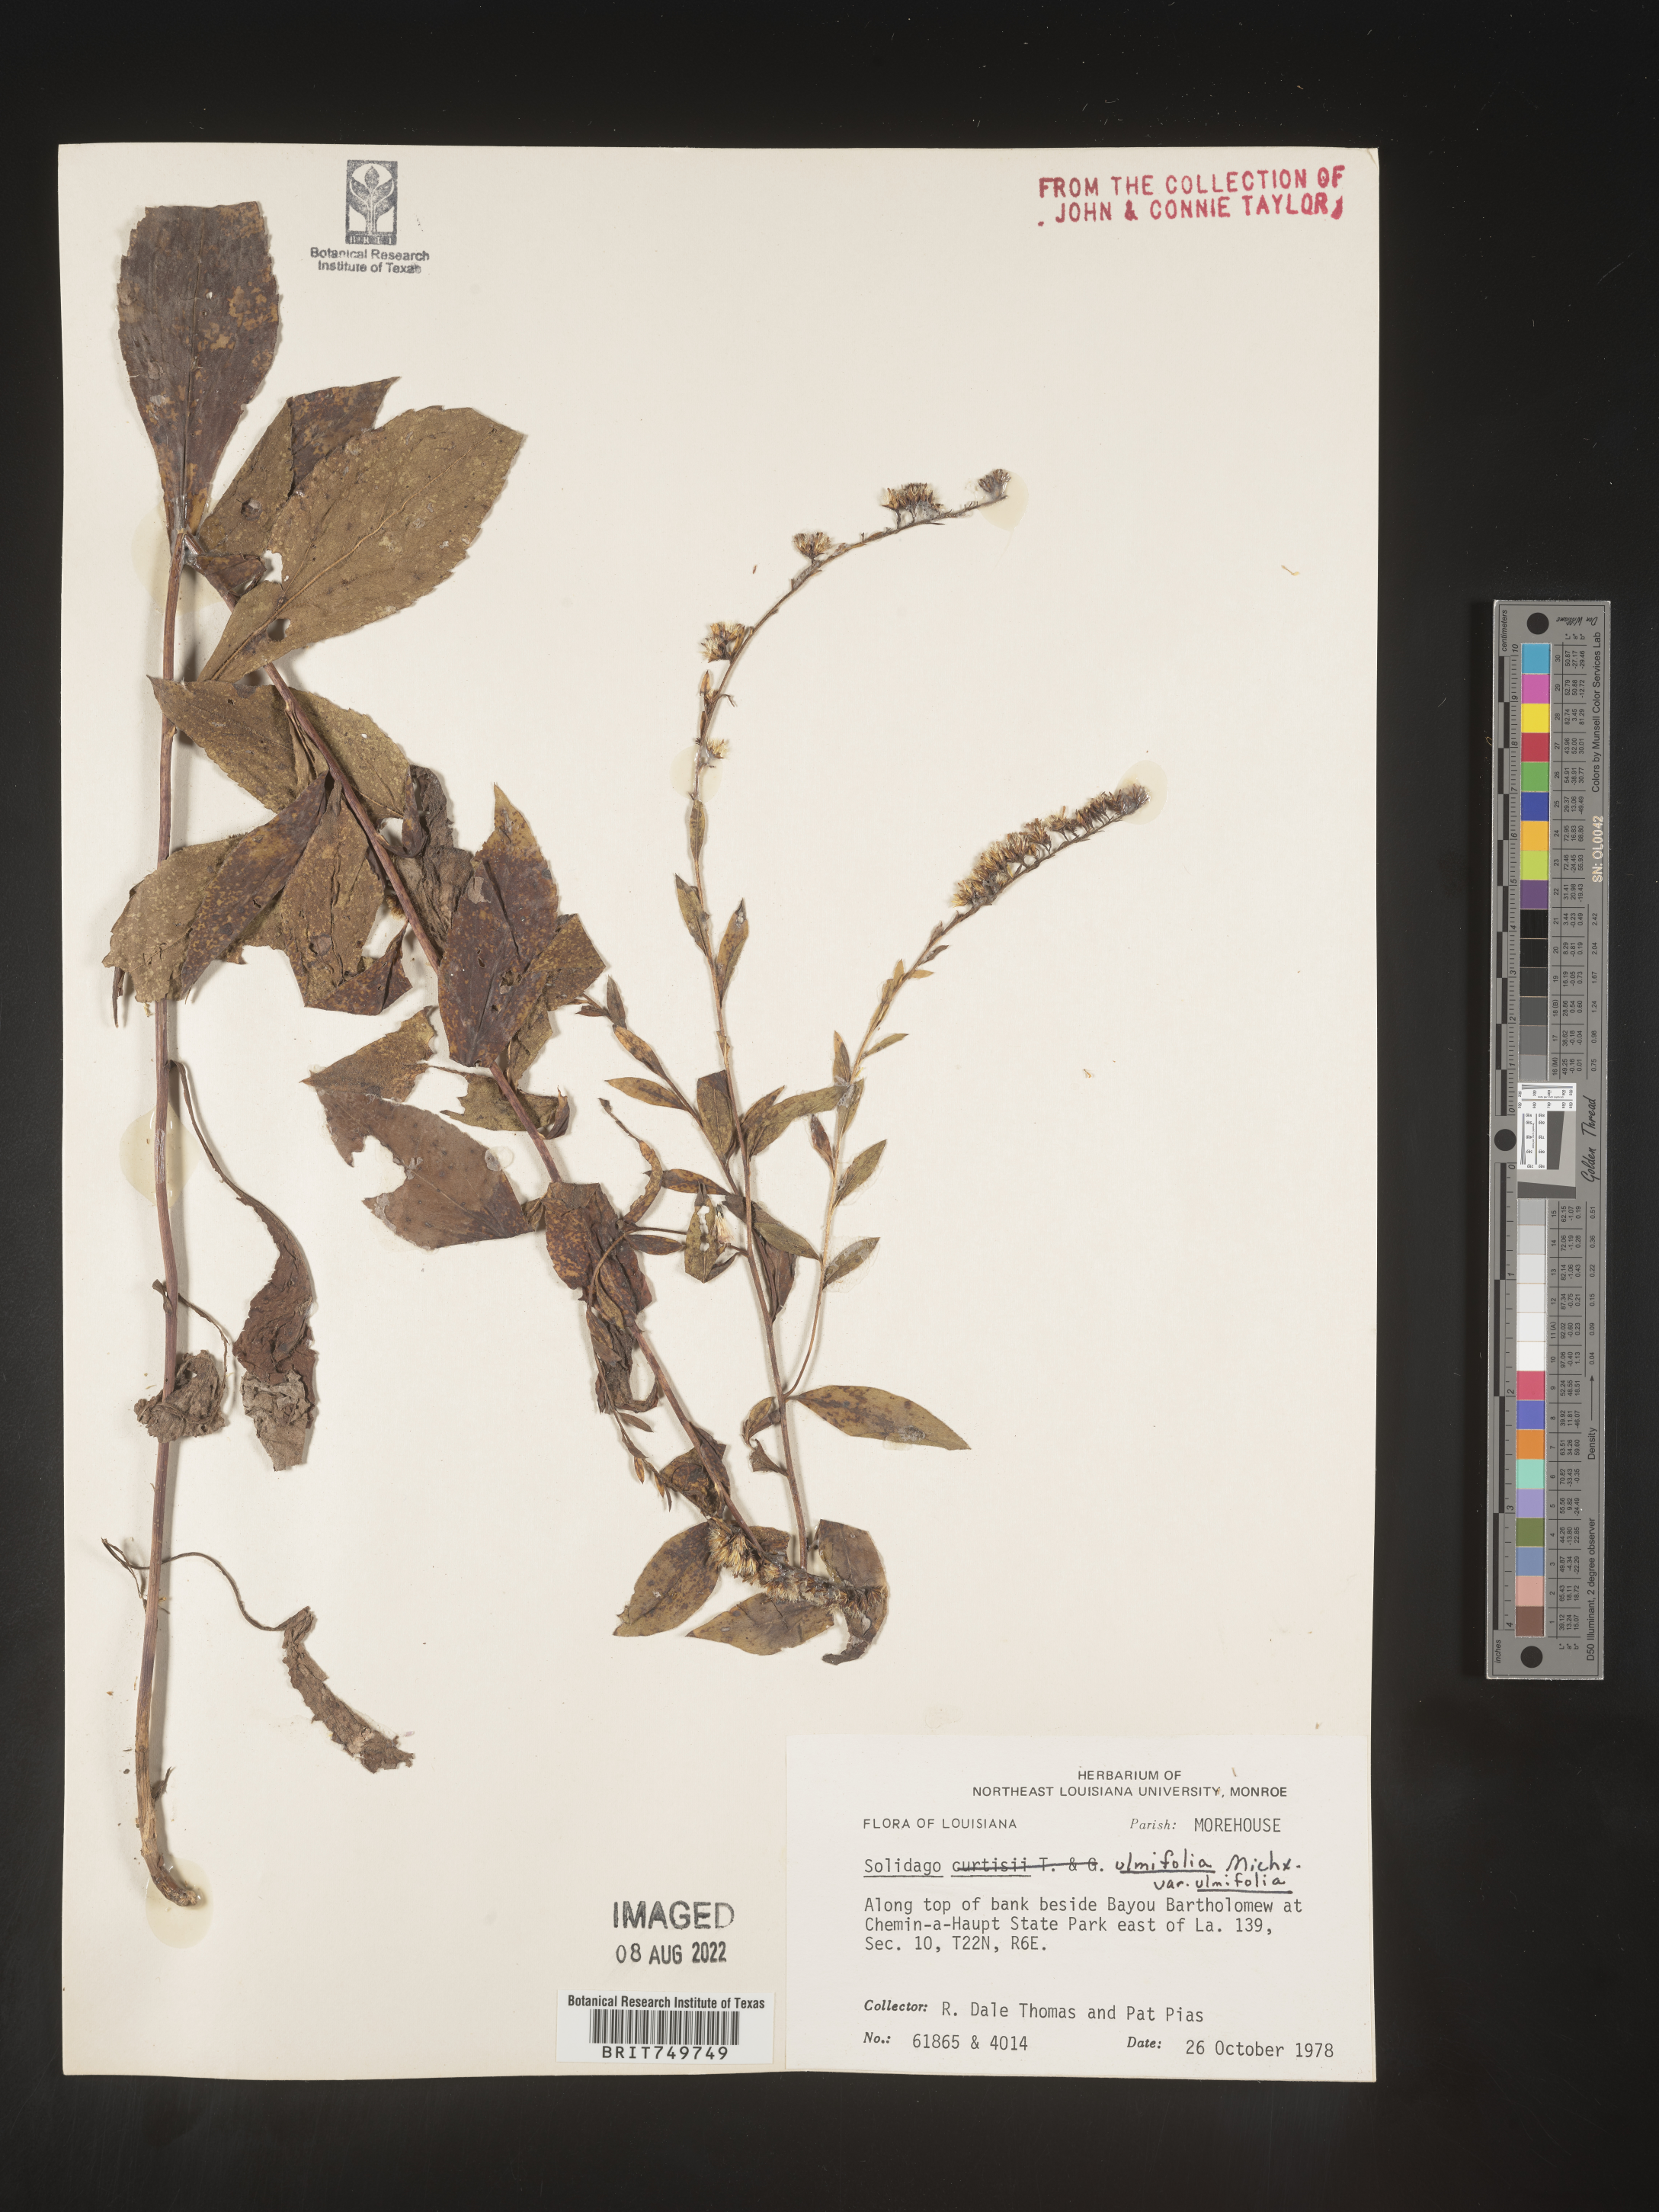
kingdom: Plantae
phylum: Tracheophyta
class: Magnoliopsida
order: Asterales
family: Asteraceae
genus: Solidago
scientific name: Solidago ulmifolia
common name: Elm-leaf goldenrod
